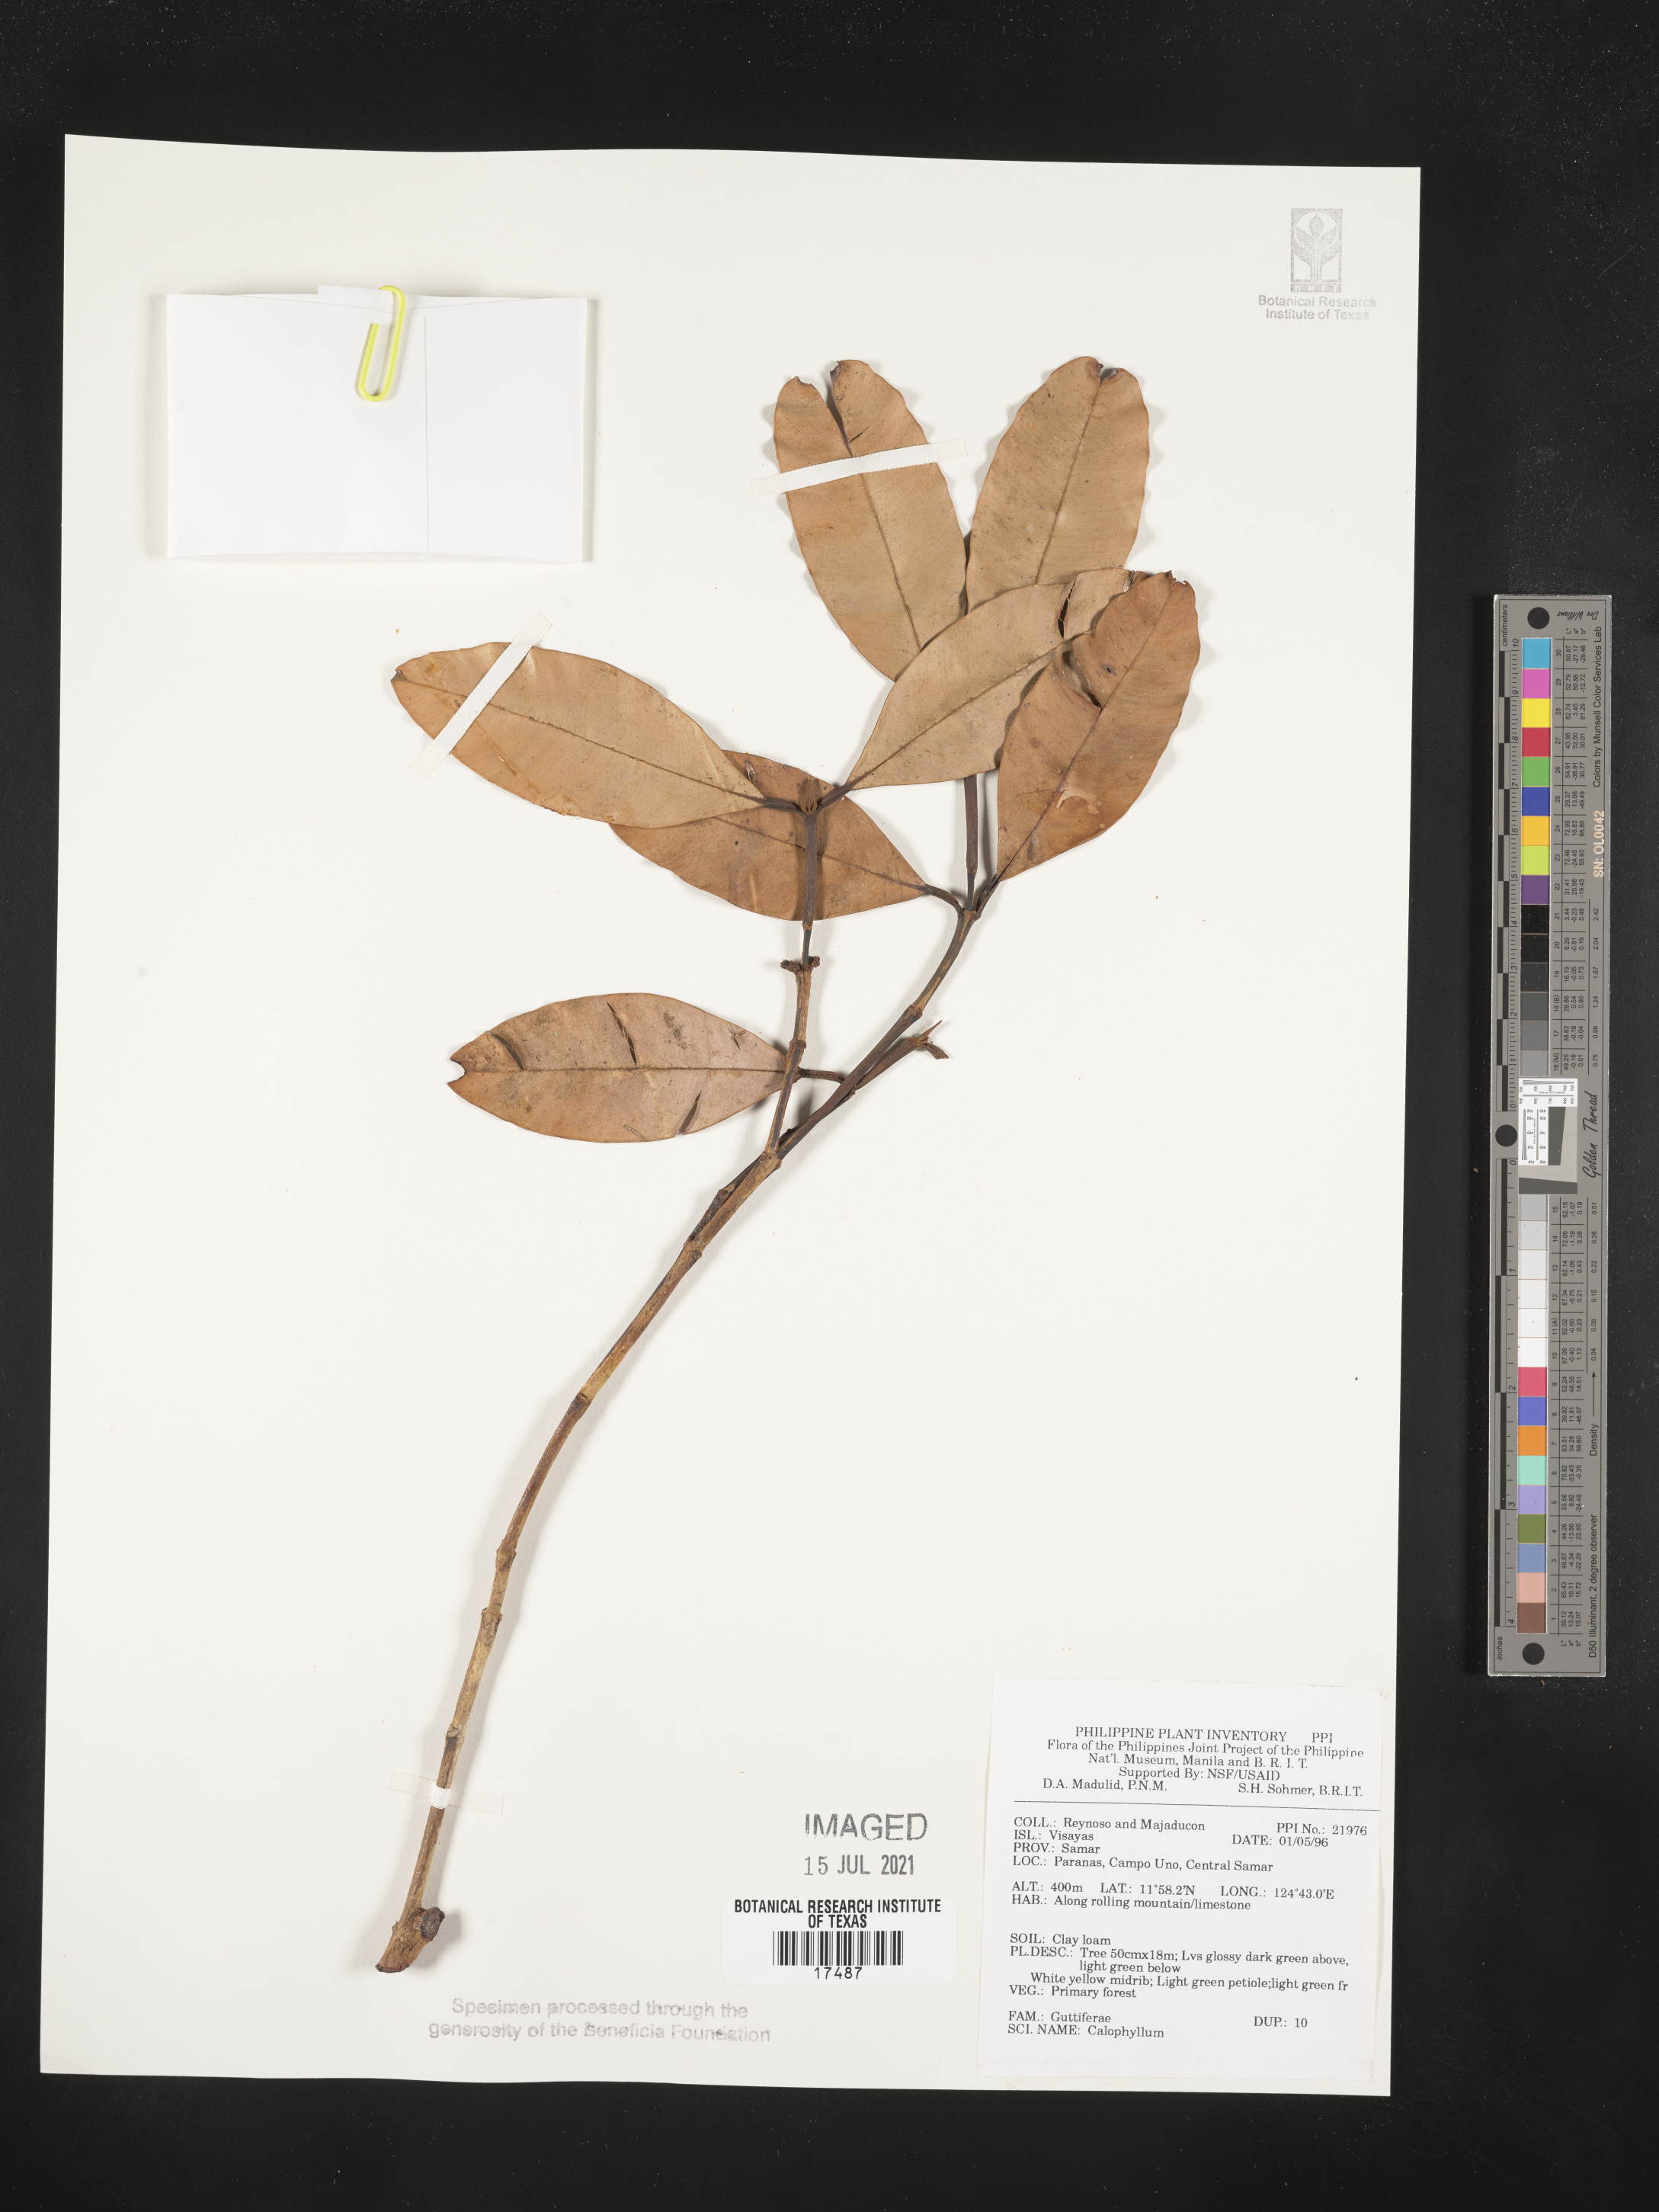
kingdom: Plantae
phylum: Tracheophyta
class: Magnoliopsida
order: Malpighiales
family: Calophyllaceae
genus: Calophyllum
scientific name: Calophyllum
